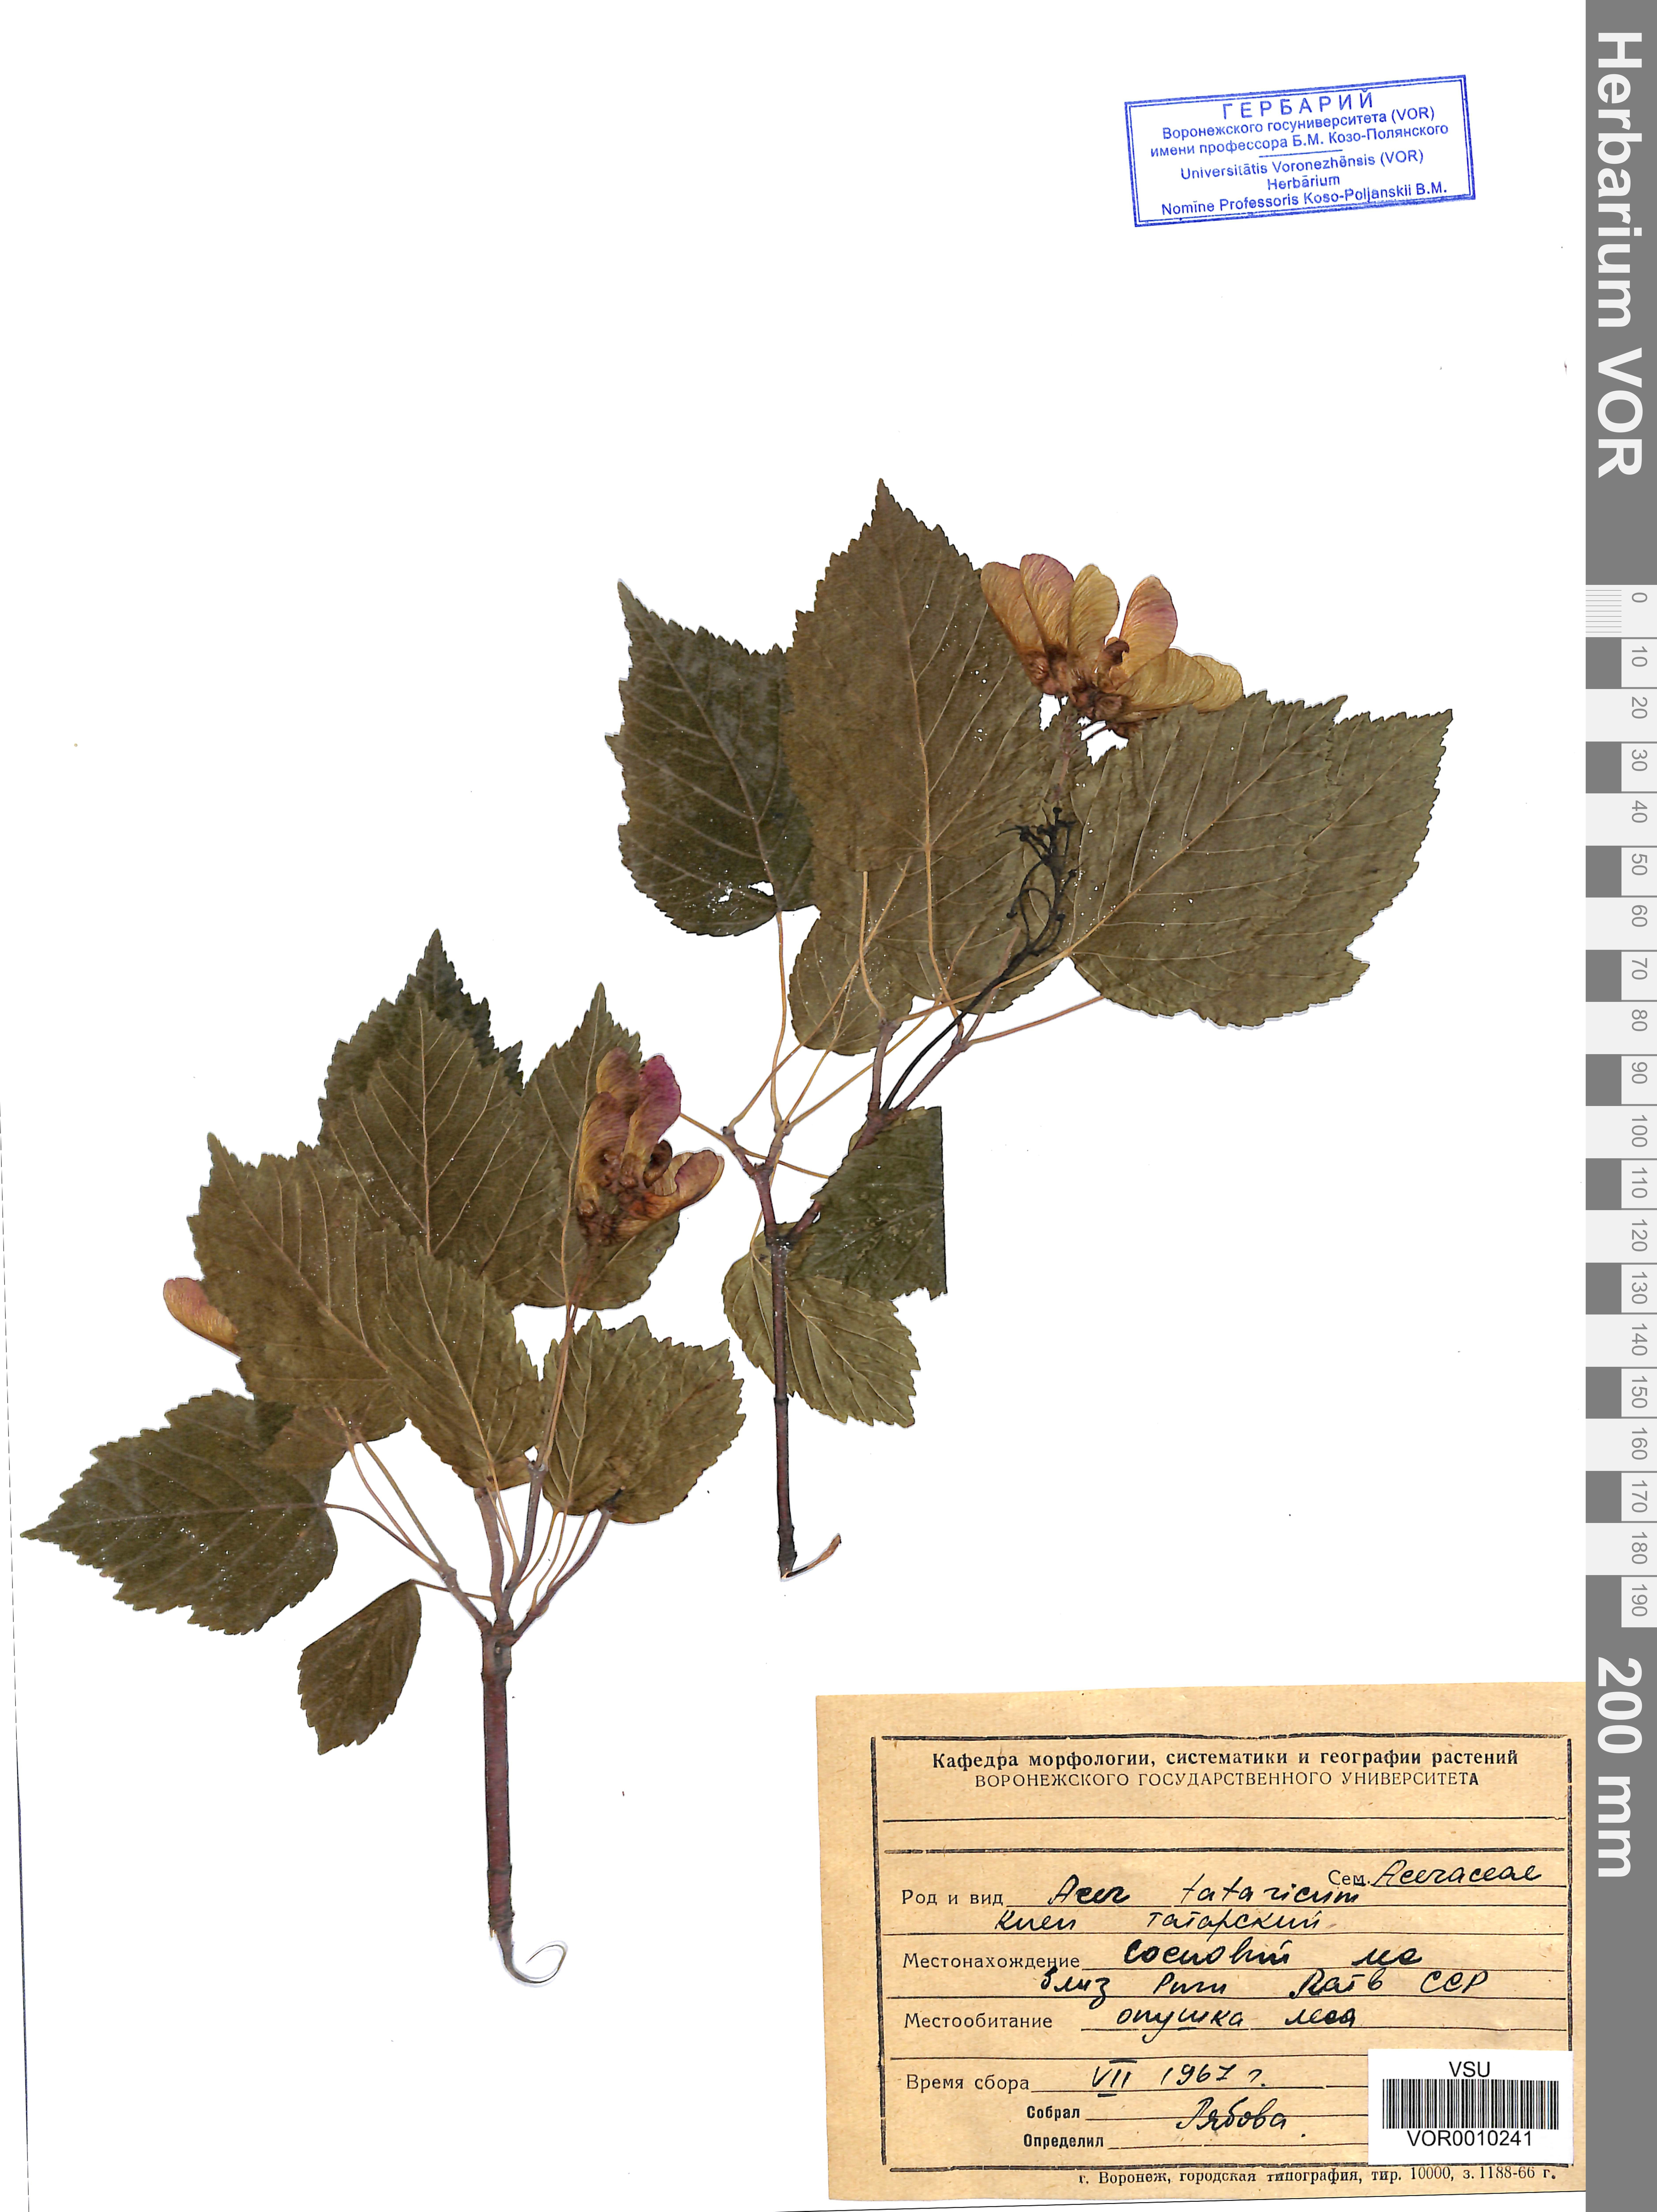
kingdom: Plantae
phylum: Tracheophyta
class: Magnoliopsida
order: Sapindales
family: Sapindaceae
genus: Acer
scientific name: Acer tataricum
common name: Tartar maple
